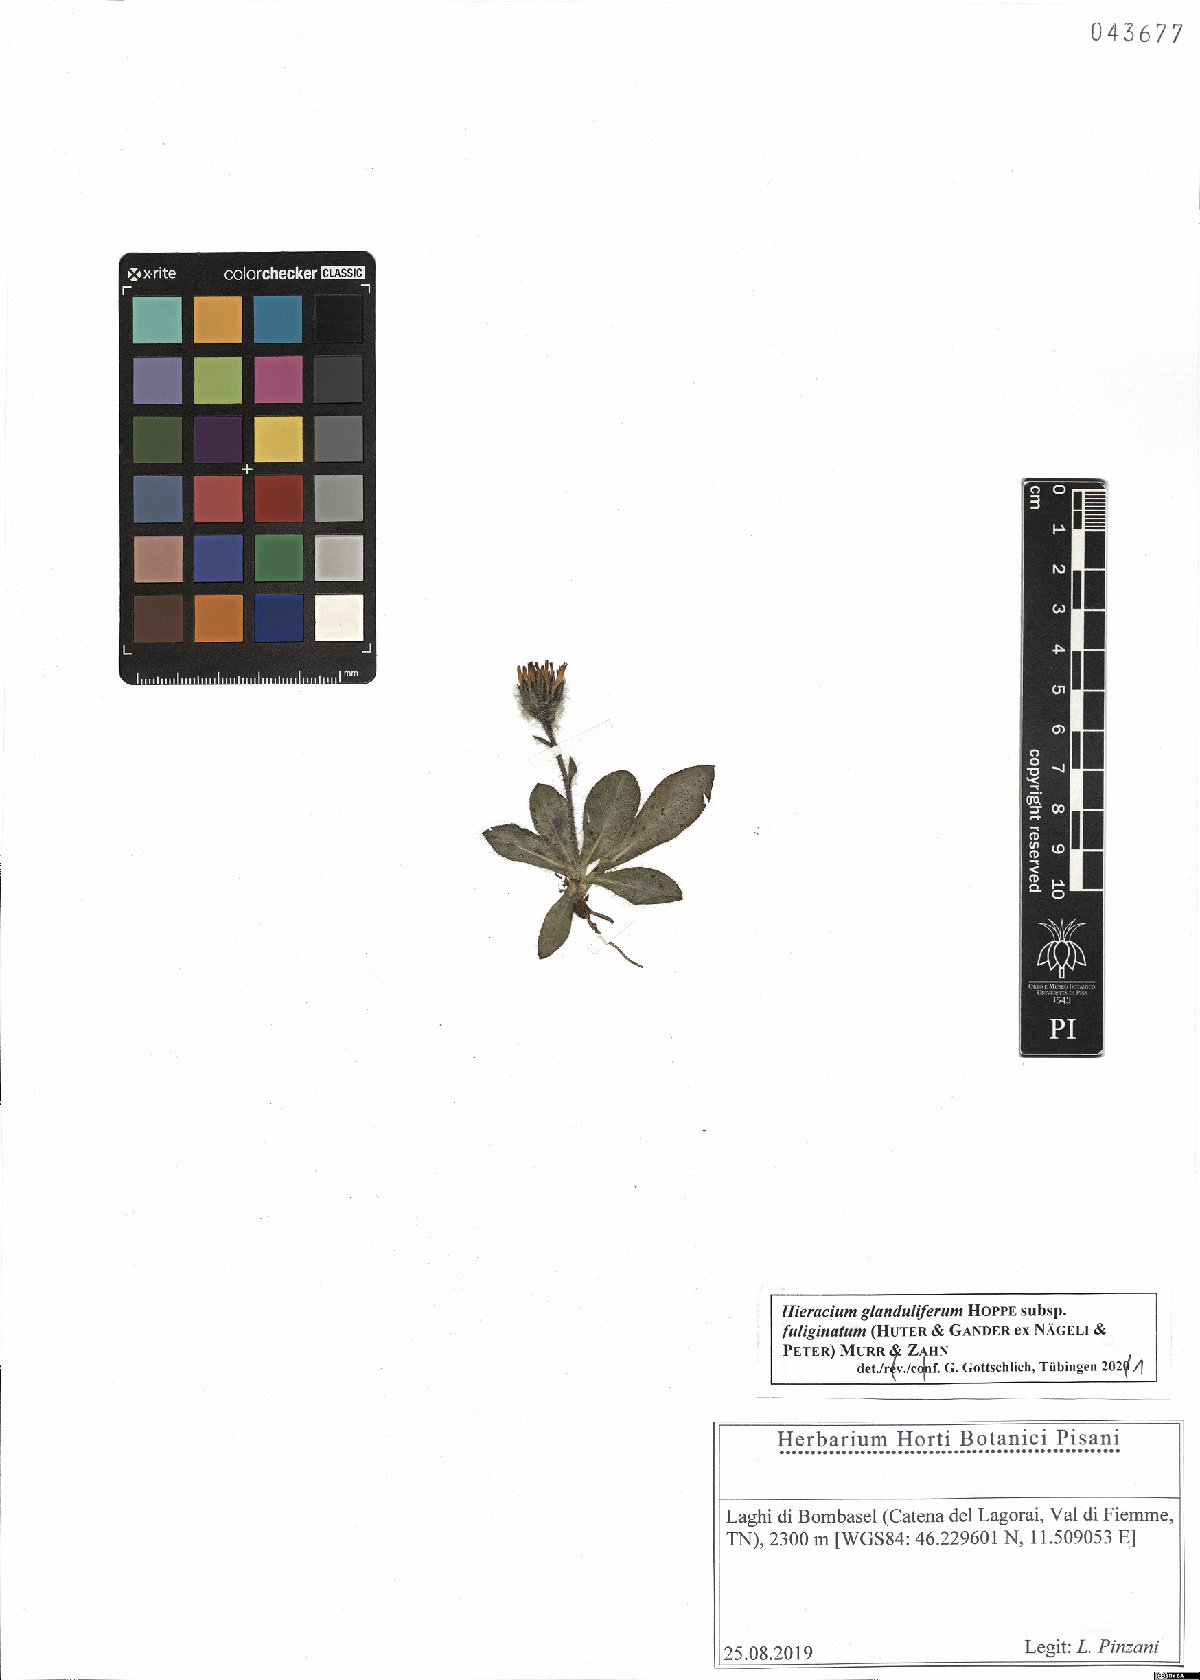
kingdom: Plantae
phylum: Tracheophyta
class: Magnoliopsida
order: Asterales
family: Asteraceae
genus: Hieracium
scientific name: Hieracium piliferum
